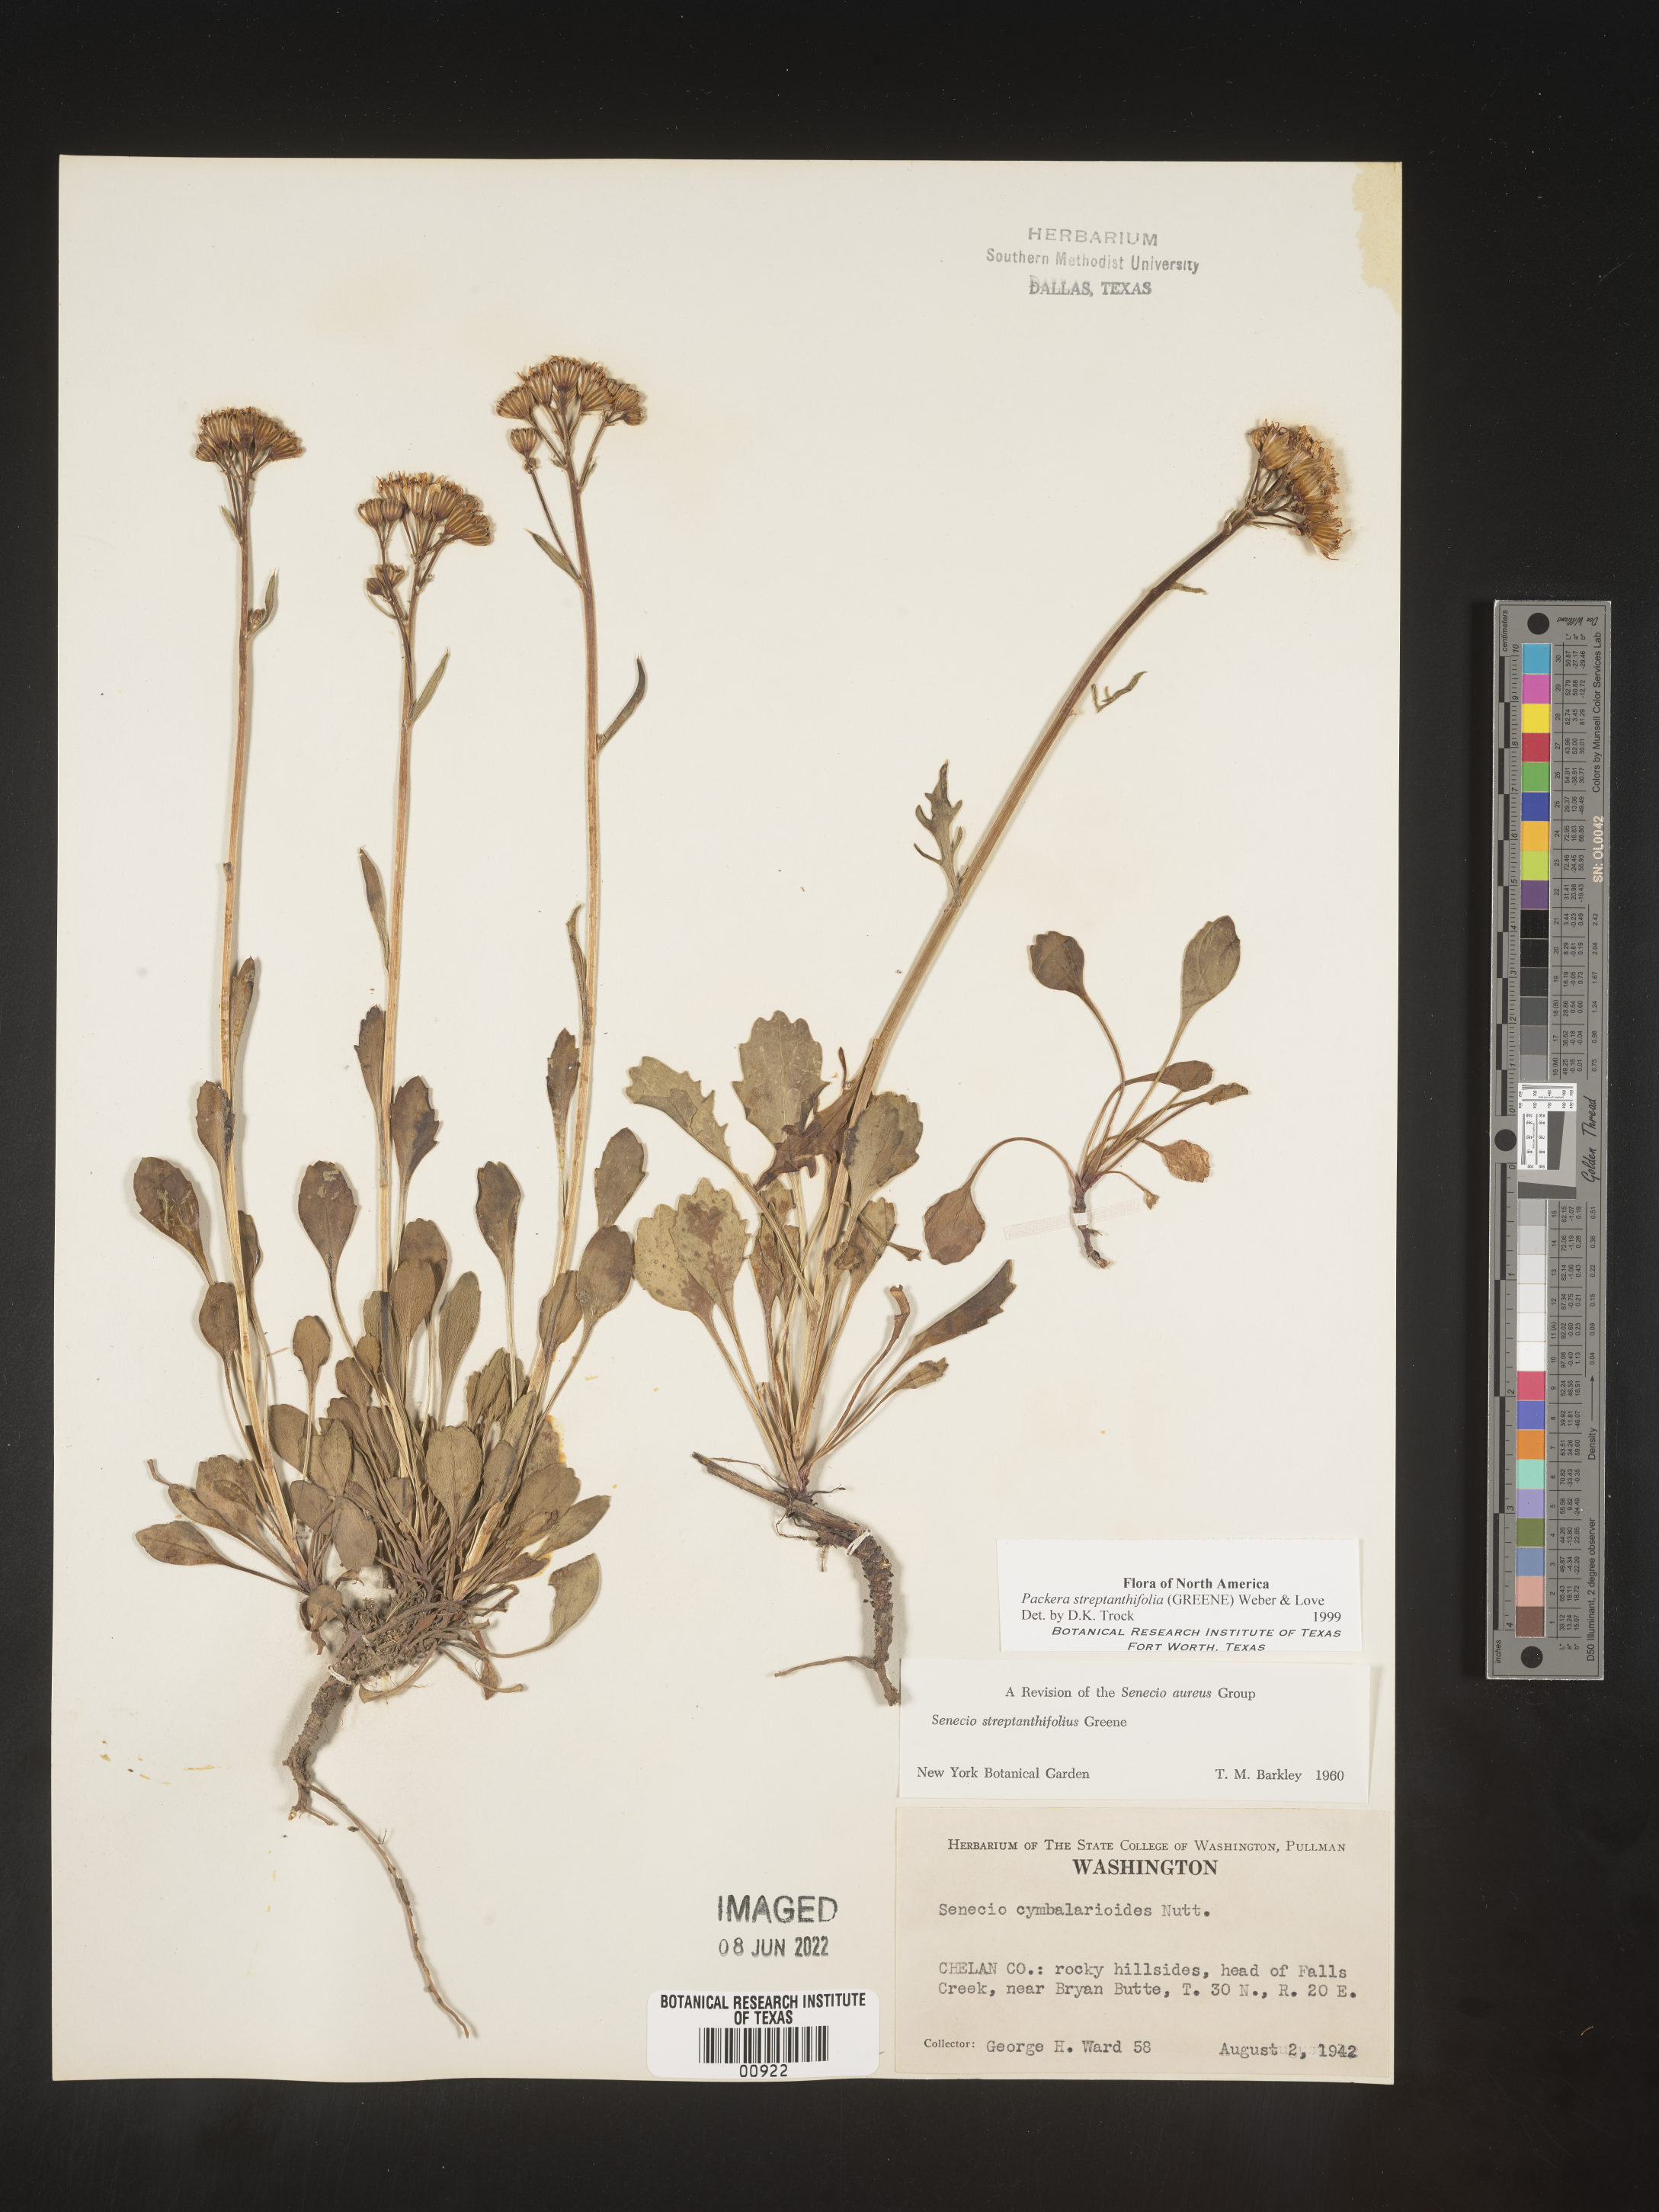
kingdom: Plantae
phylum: Tracheophyta
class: Magnoliopsida
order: Asterales
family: Asteraceae
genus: Packera
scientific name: Packera streptanthifolia
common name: Rocky mountain butterweed
